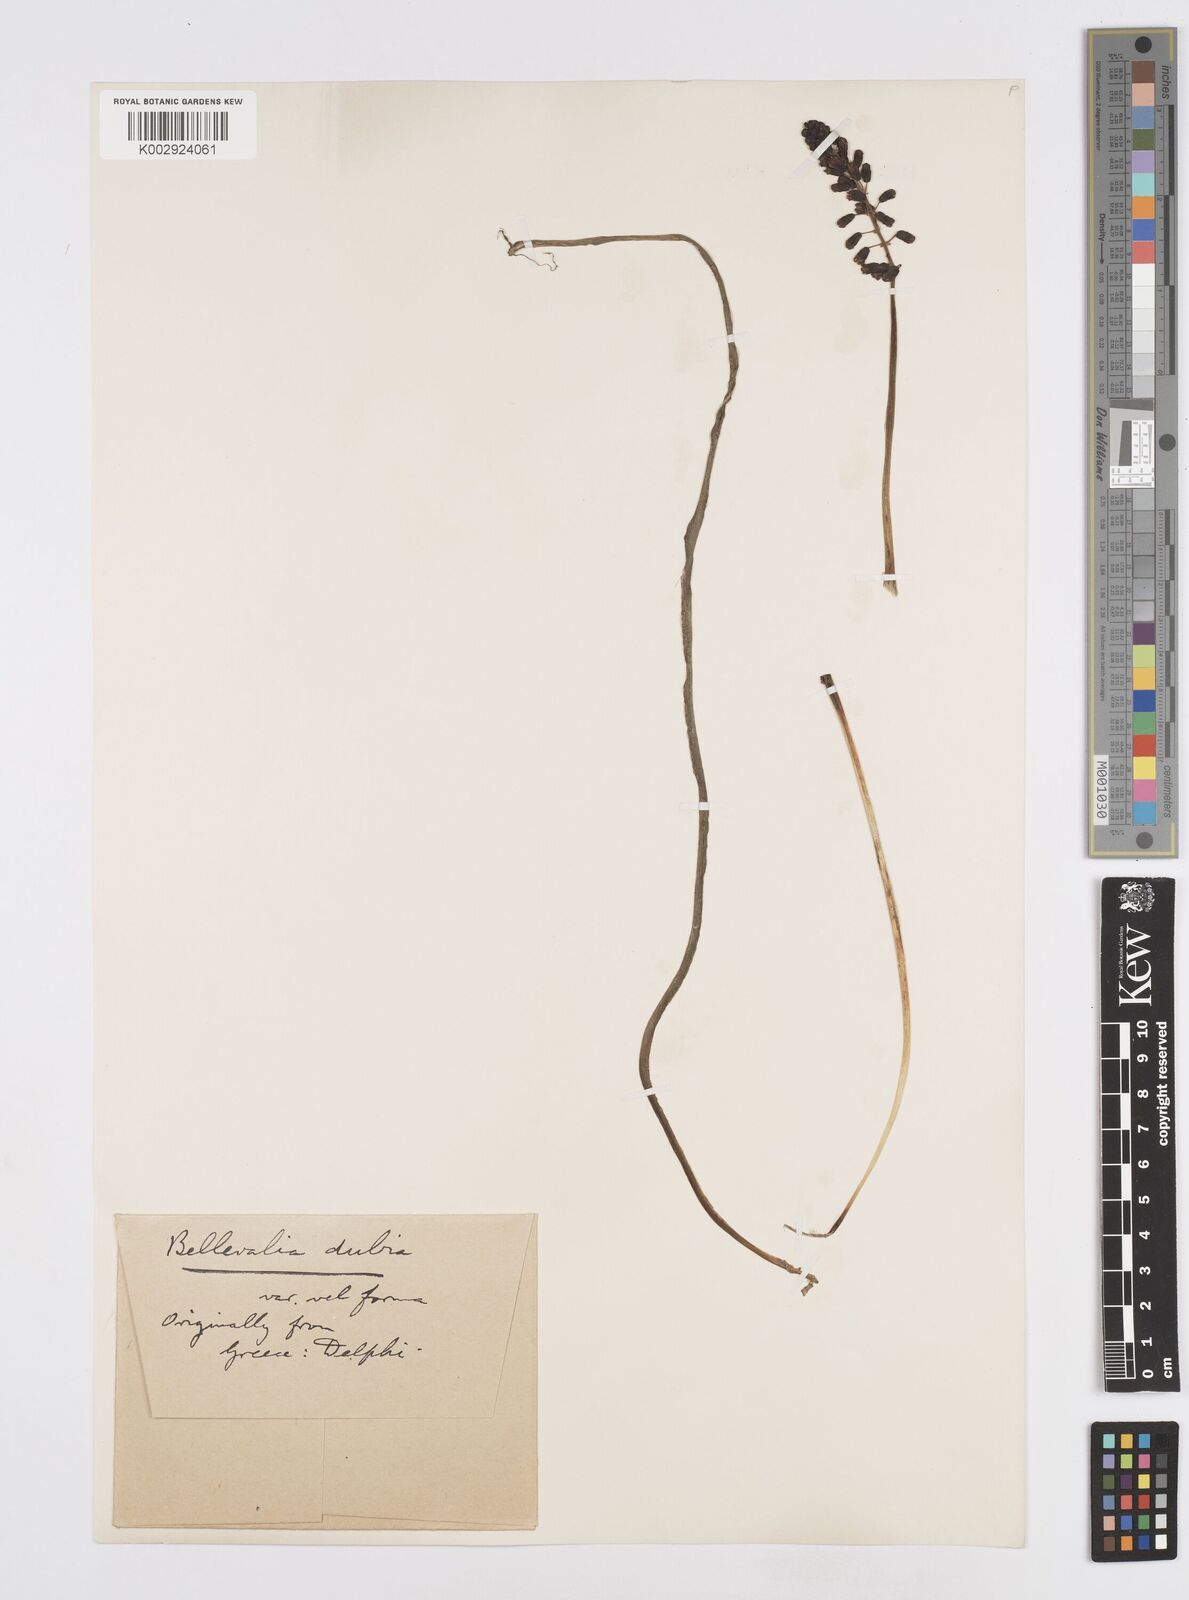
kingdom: Plantae
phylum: Tracheophyta
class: Liliopsida
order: Asparagales
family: Asparagaceae
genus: Bellevalia
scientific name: Bellevalia dubia
